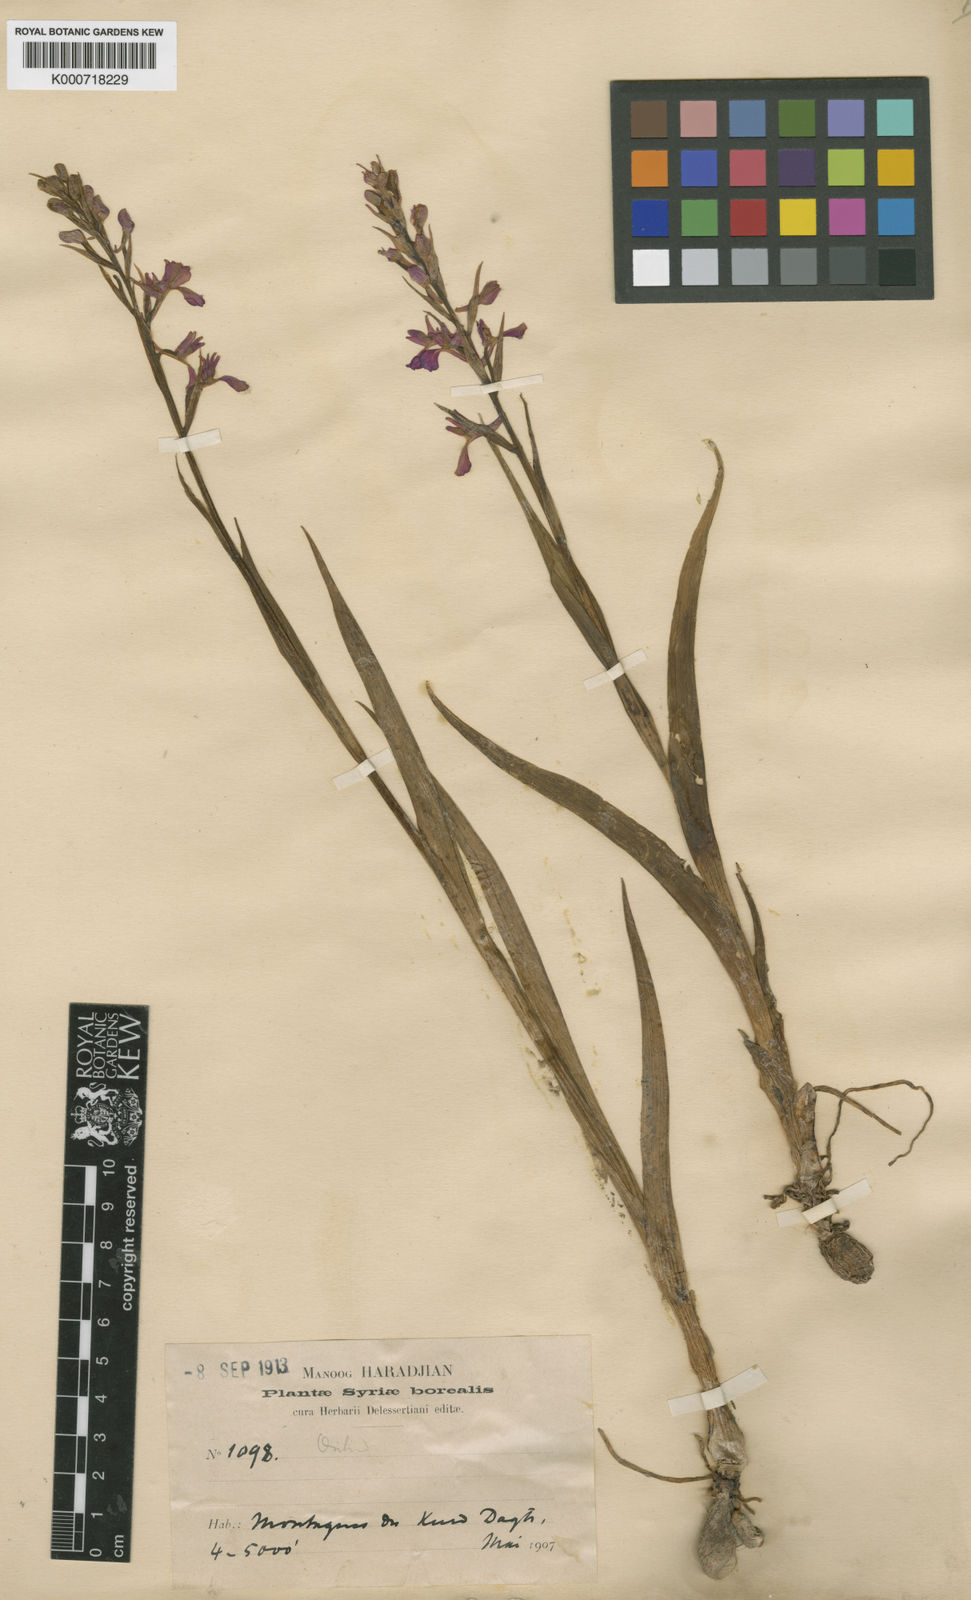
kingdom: Plantae
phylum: Tracheophyta
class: Liliopsida
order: Asparagales
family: Orchidaceae
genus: Anacamptis
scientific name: Anacamptis palustris
